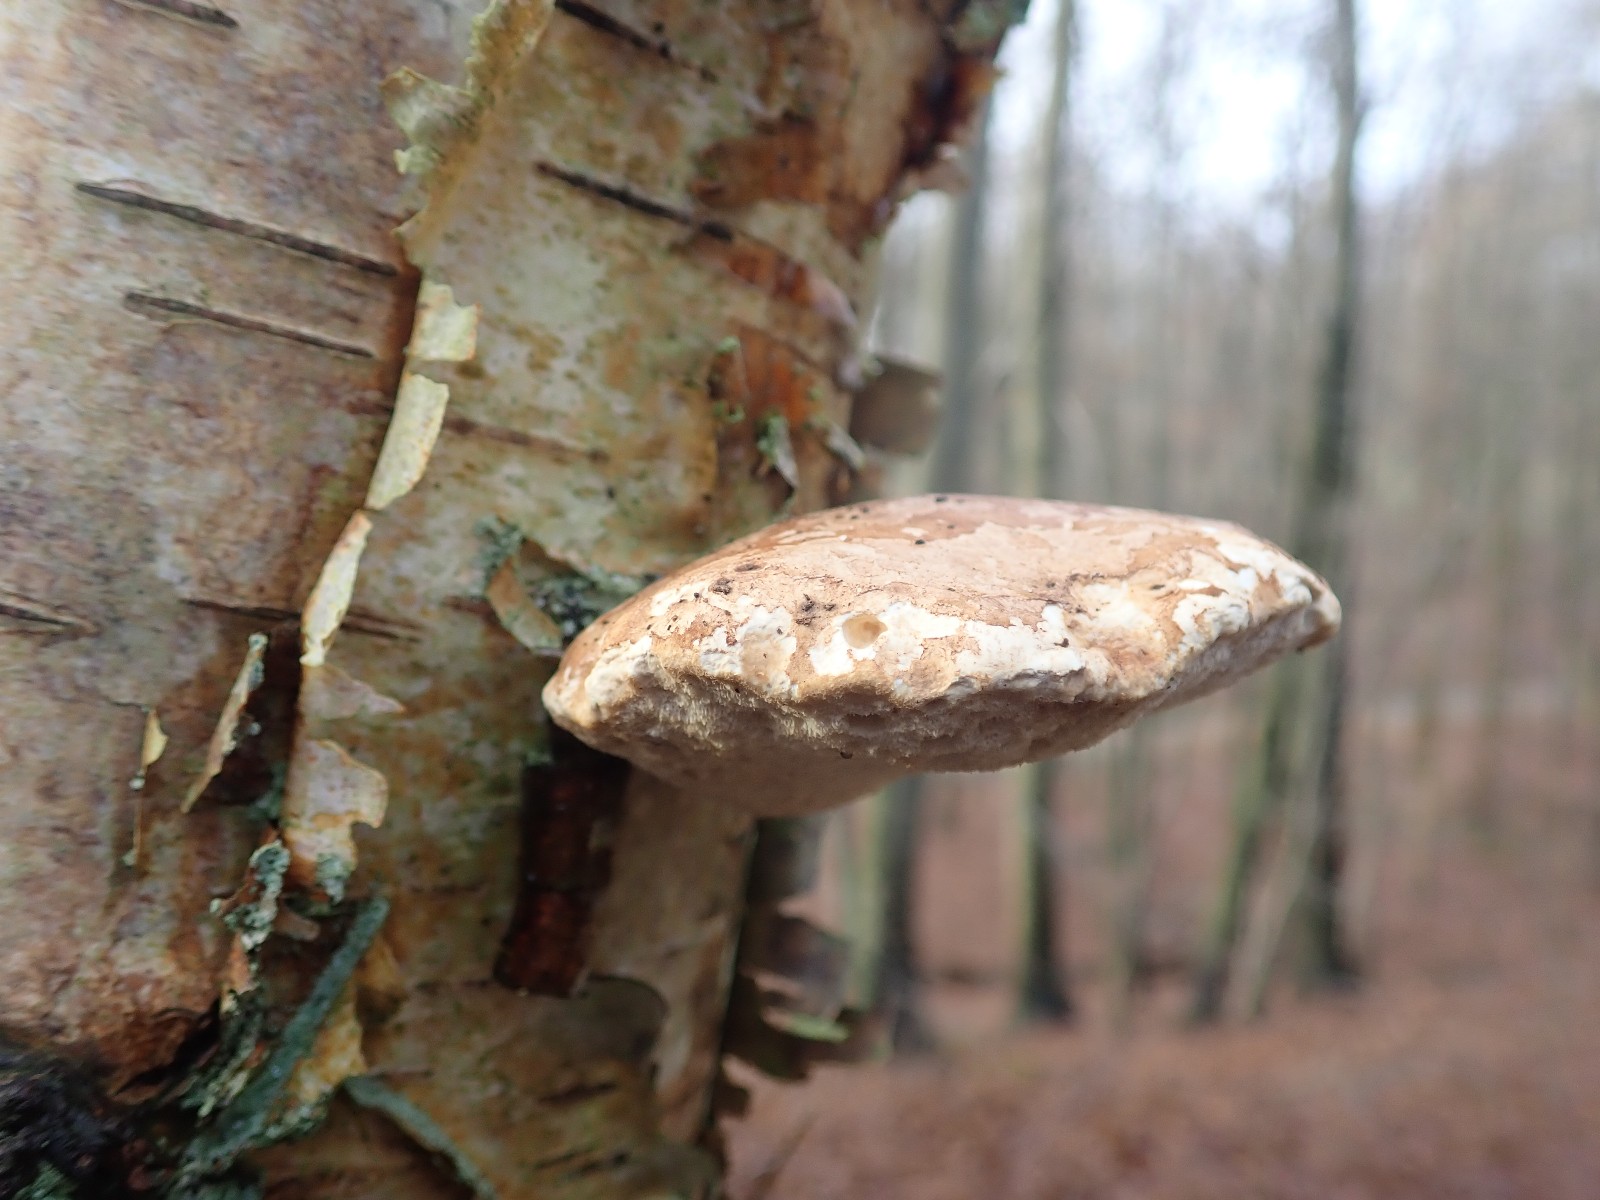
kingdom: Fungi
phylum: Basidiomycota
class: Agaricomycetes
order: Polyporales
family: Fomitopsidaceae
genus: Fomitopsis
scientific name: Fomitopsis betulina
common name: birkeporesvamp
